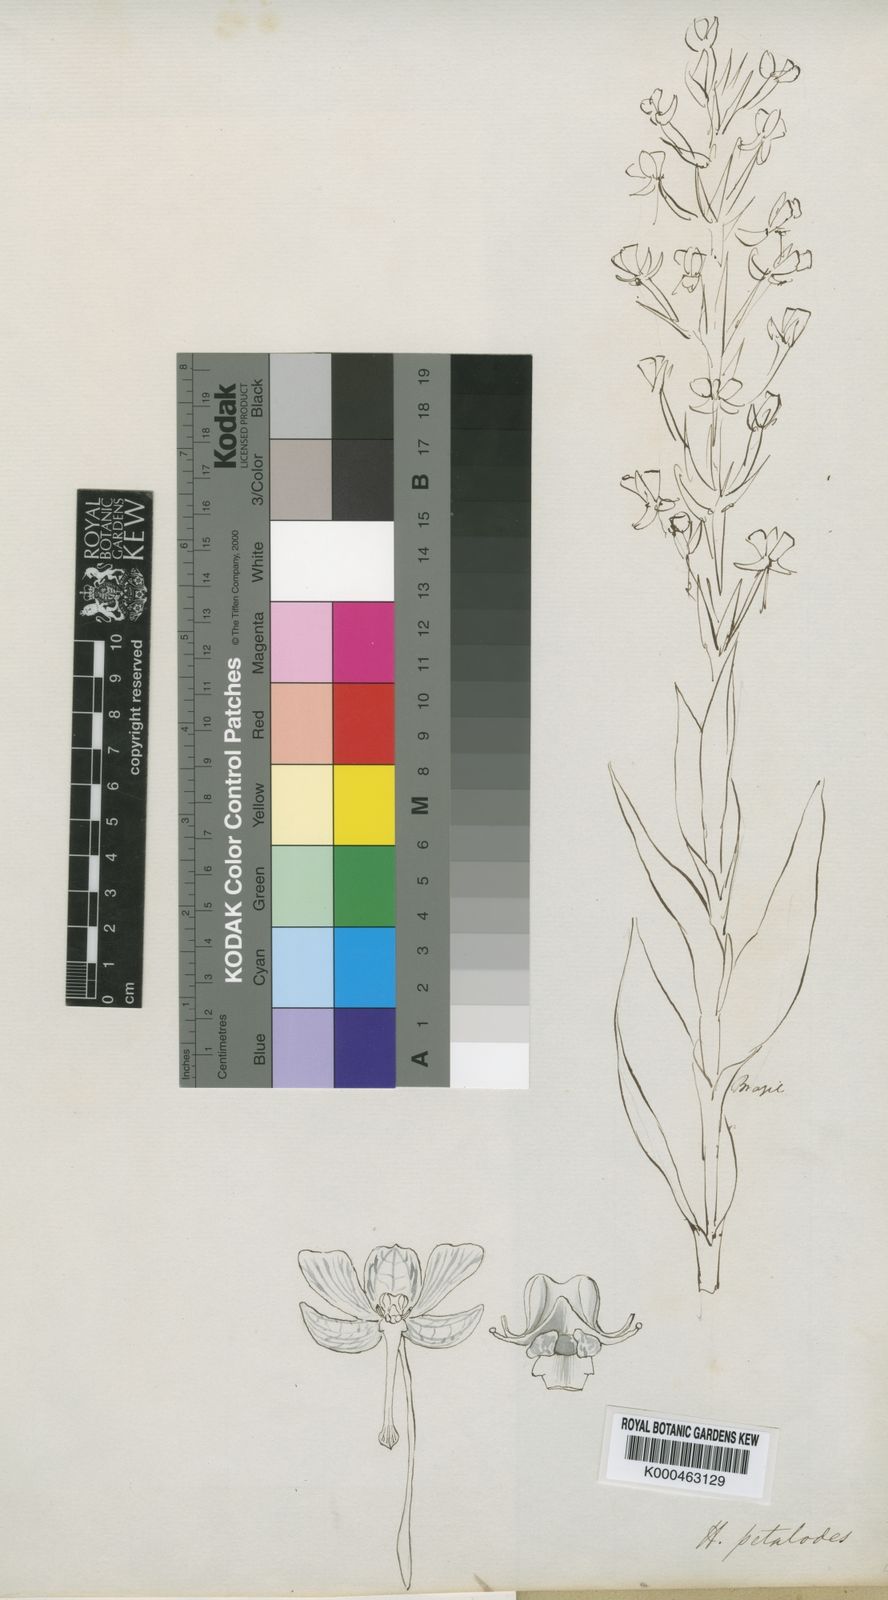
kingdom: Plantae
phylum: Tracheophyta
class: Liliopsida
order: Asparagales
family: Orchidaceae
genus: Habenaria
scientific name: Habenaria petalodes
